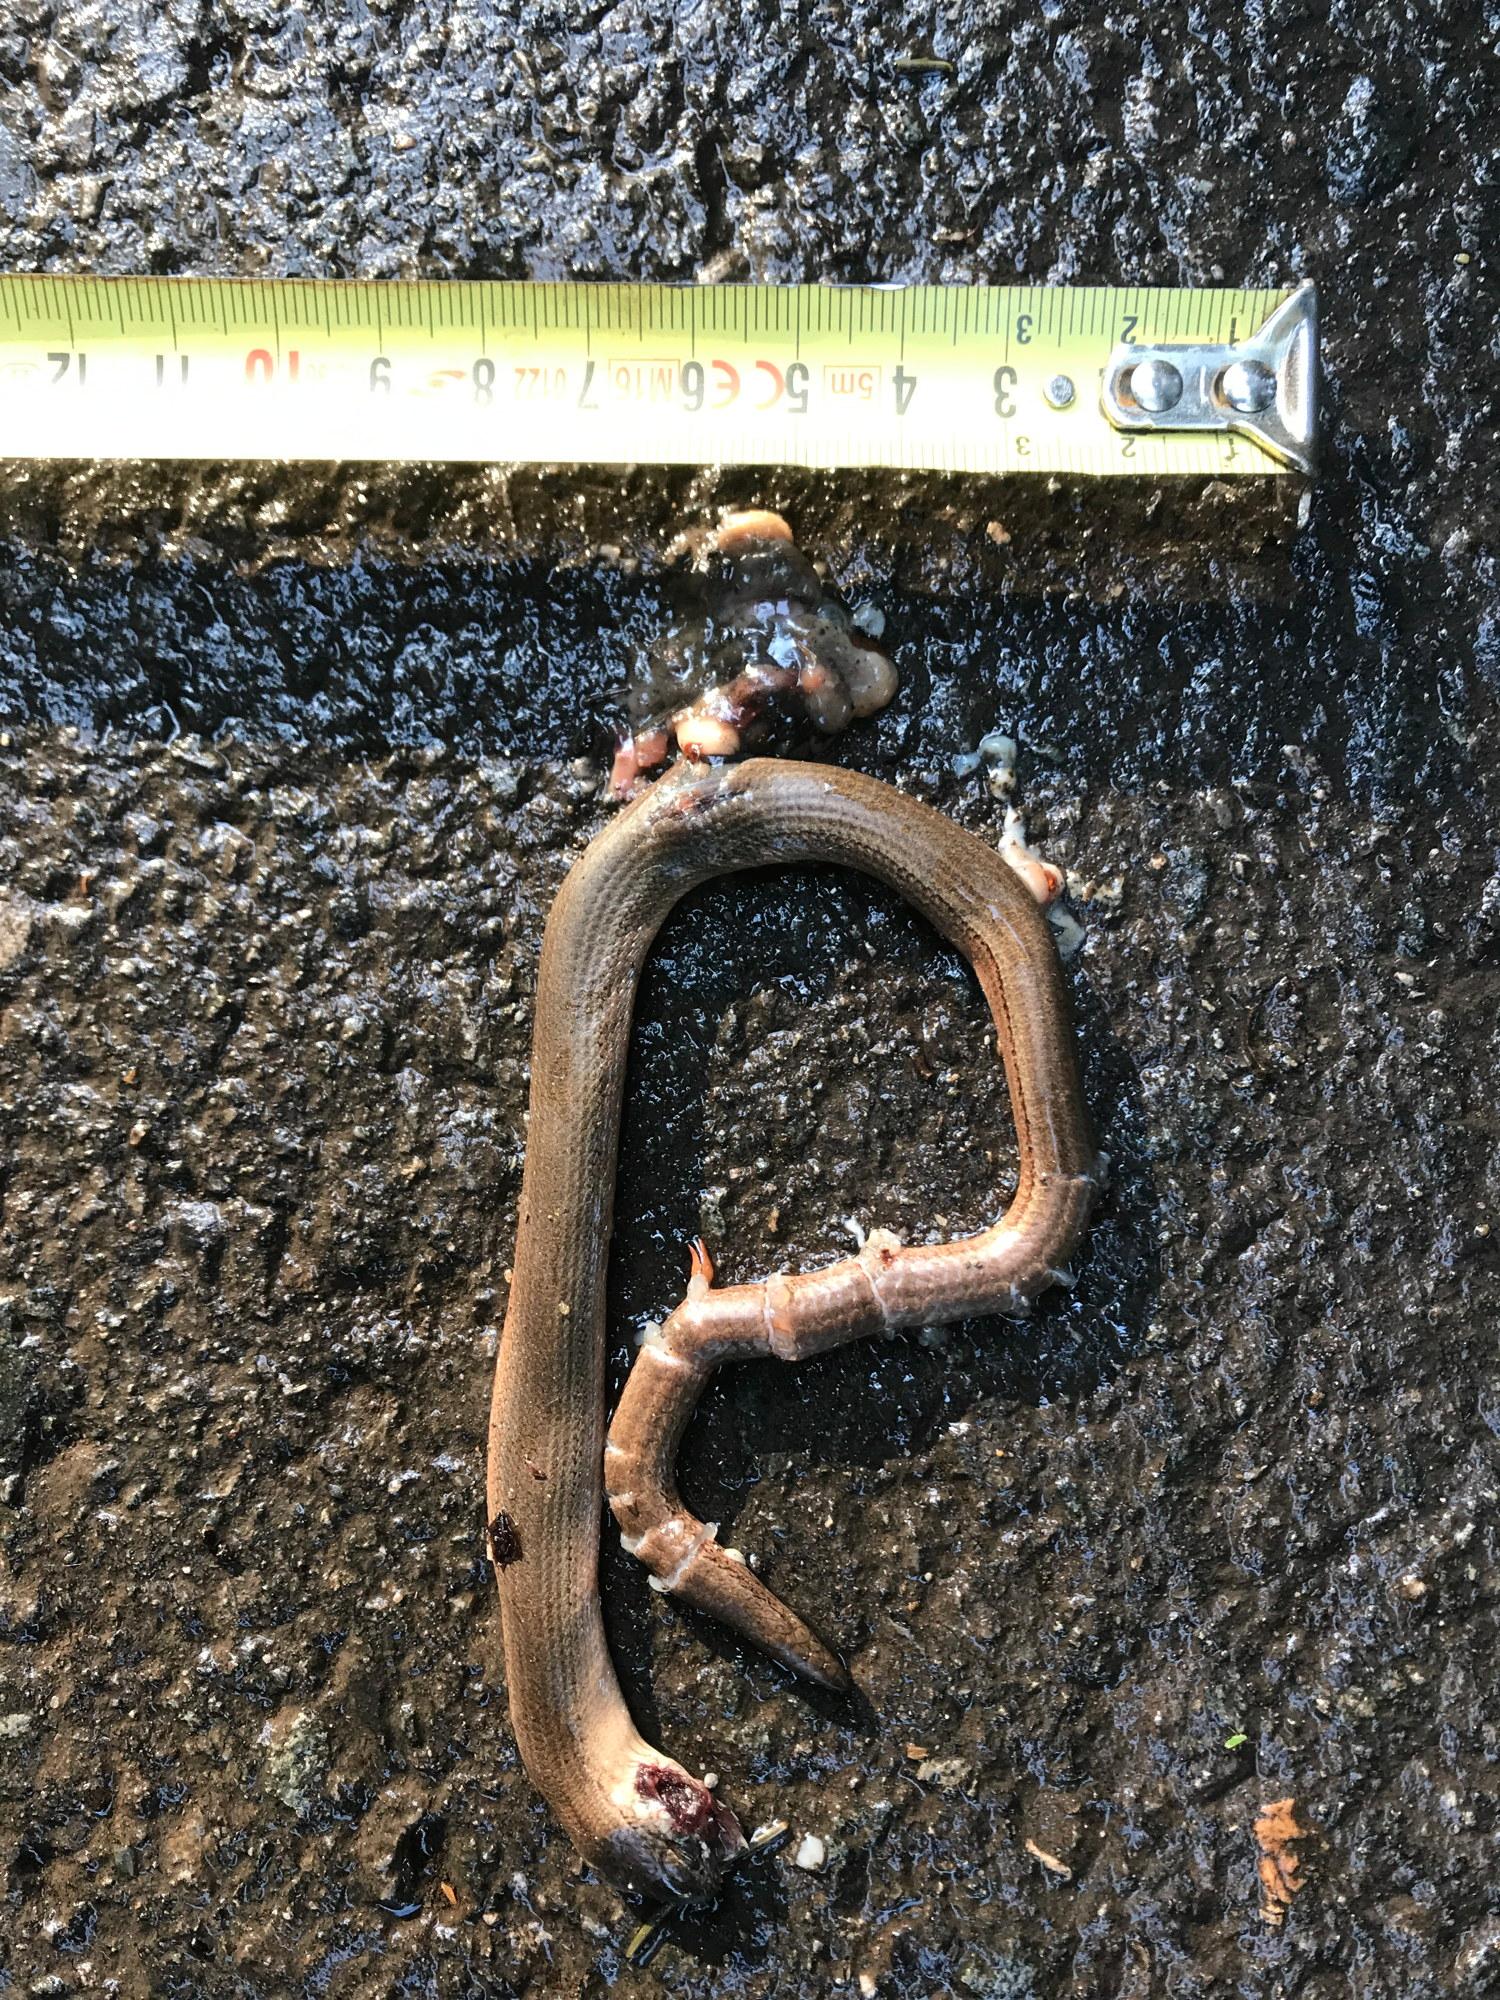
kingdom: Animalia
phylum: Chordata
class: Squamata
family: Anguidae
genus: Anguis
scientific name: Anguis fragilis
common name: Slow worm
